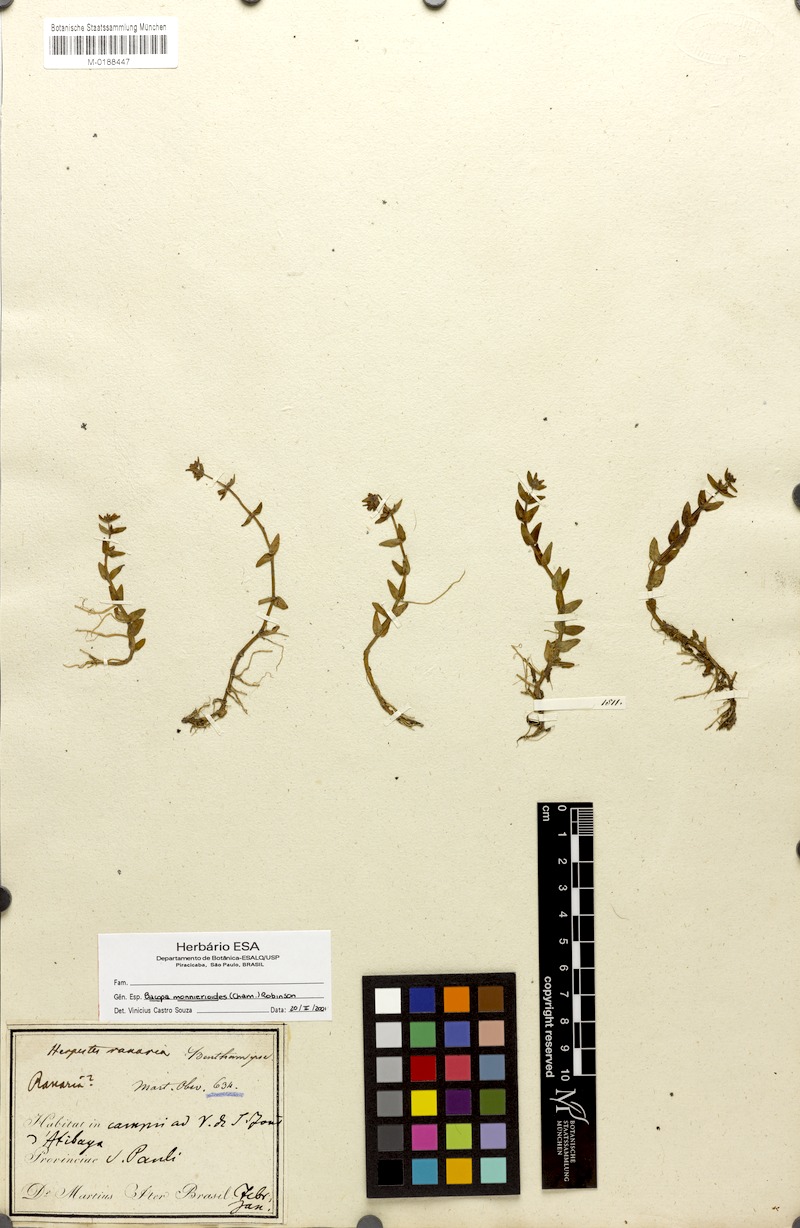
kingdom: Plantae
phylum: Tracheophyta
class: Magnoliopsida
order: Lamiales
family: Plantaginaceae
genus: Bacopa
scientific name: Bacopa monnierioides
